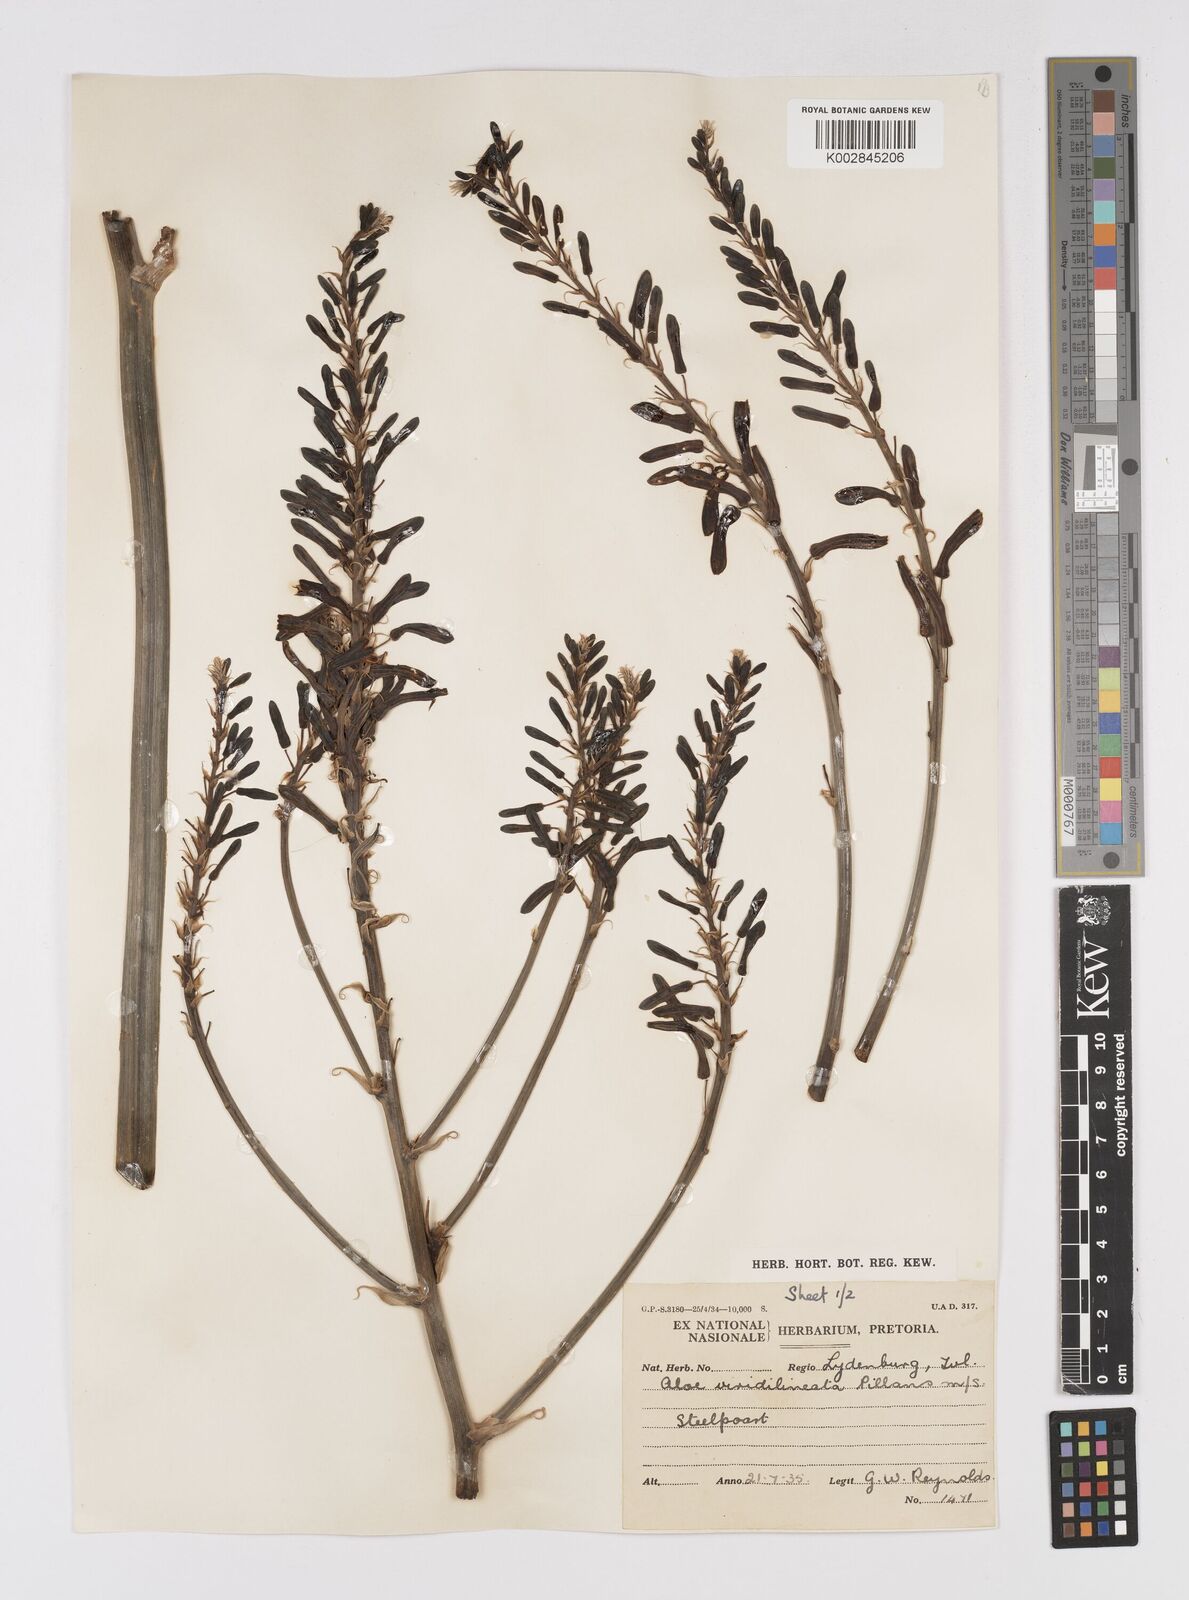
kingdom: Plantae
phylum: Tracheophyta
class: Liliopsida
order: Asparagales
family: Asphodelaceae
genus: Aloe
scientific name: Aloe burgersfortensis
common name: Burgersfort aloe
